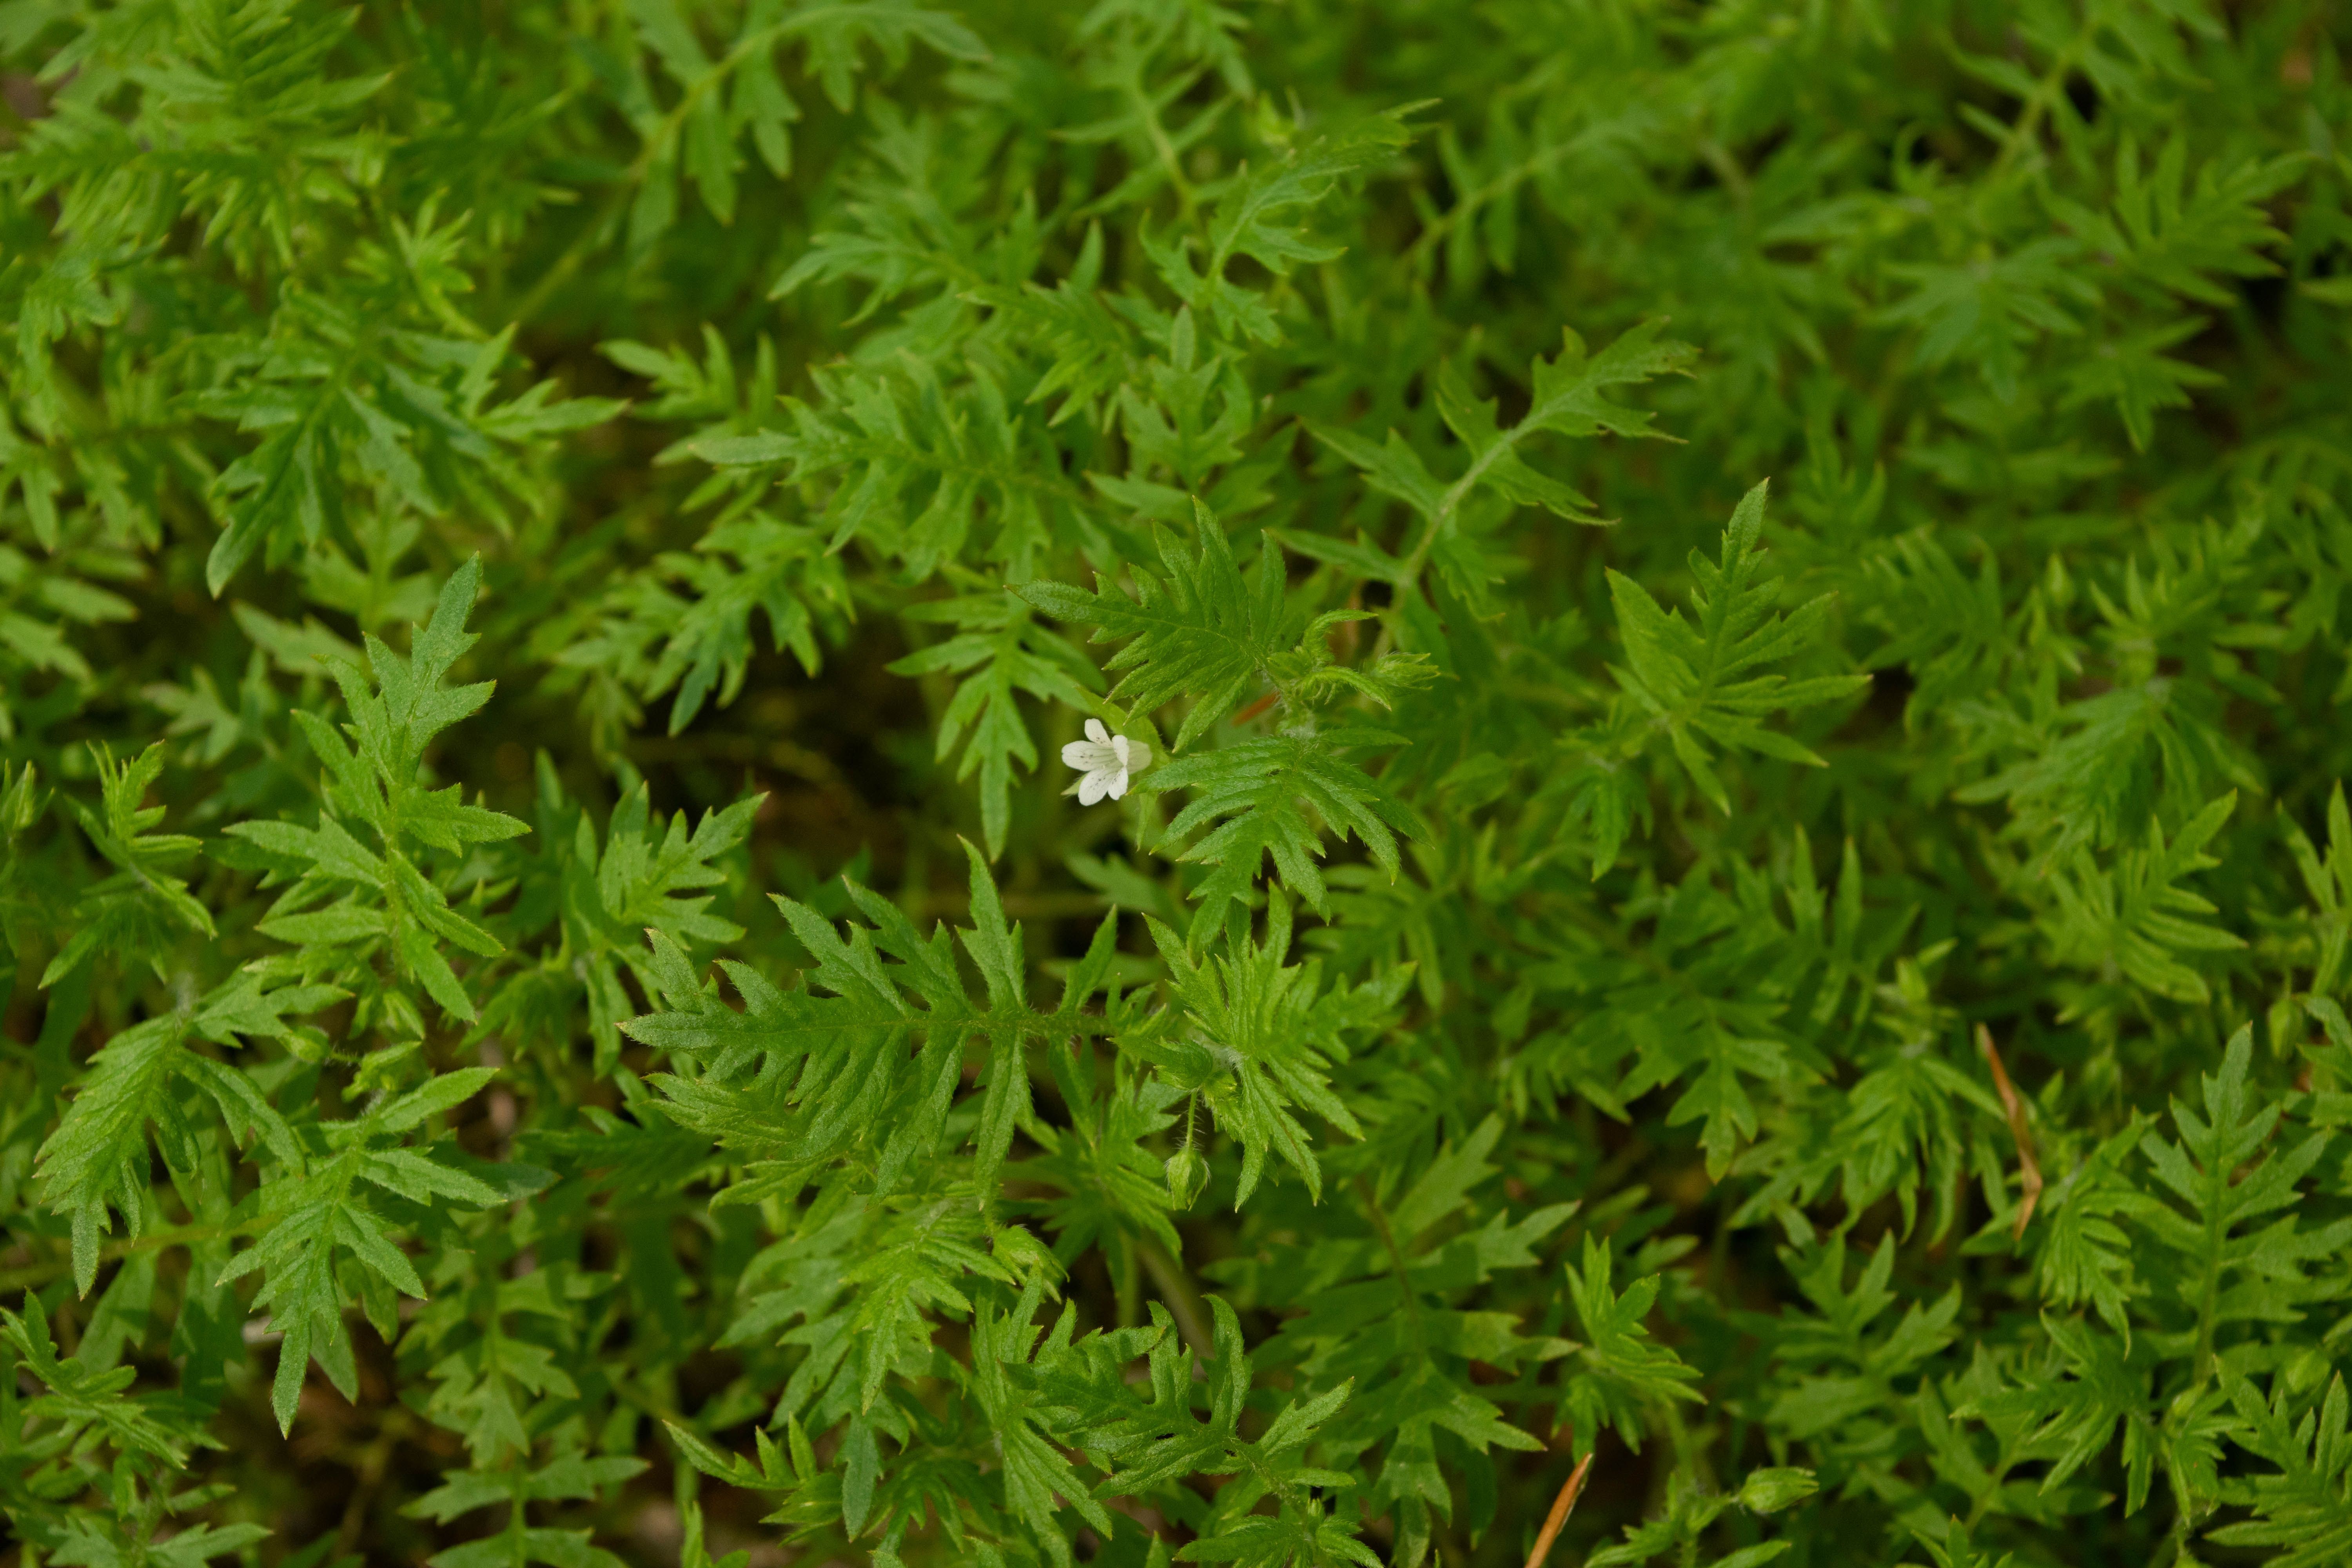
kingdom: Plantae
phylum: Tracheophyta
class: Magnoliopsida
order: Boraginales
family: Hydrophyllaceae
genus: Ellisia
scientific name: Ellisia nyctelea
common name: Aunt lucy
